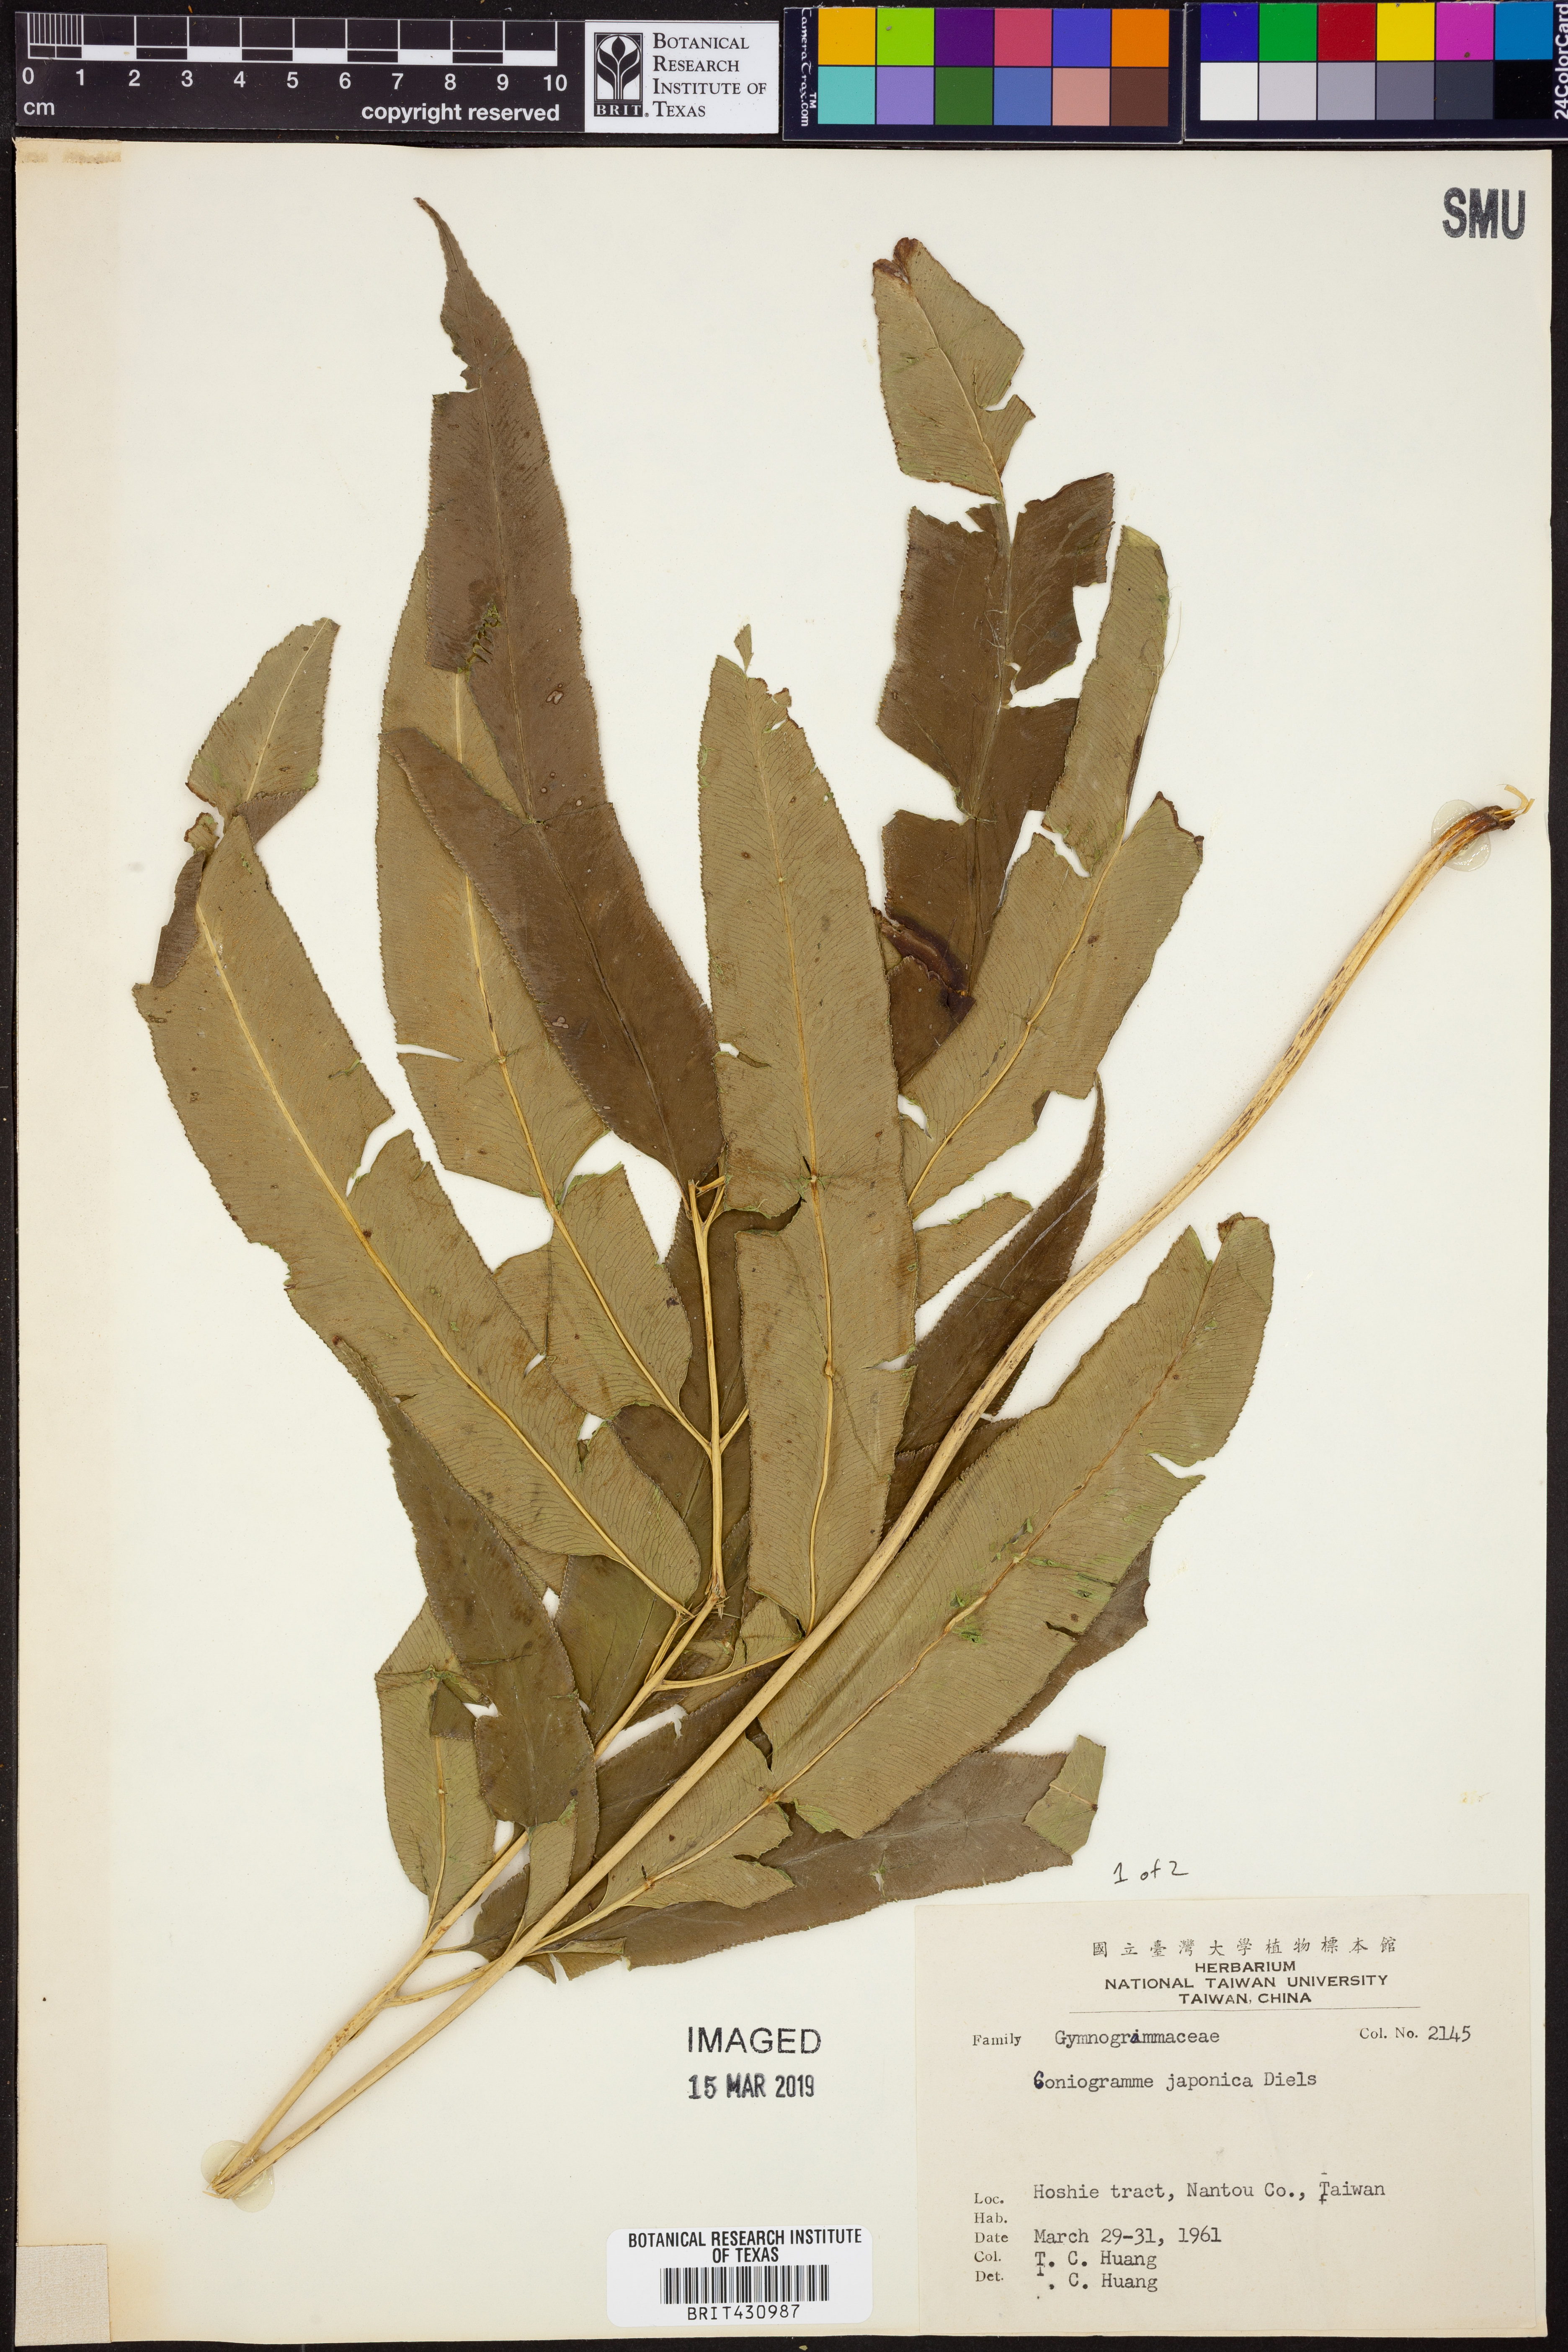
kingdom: Plantae
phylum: Tracheophyta
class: Polypodiopsida
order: Polypodiales
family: Pteridaceae
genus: Coniogramme
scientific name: Coniogramme japonica
